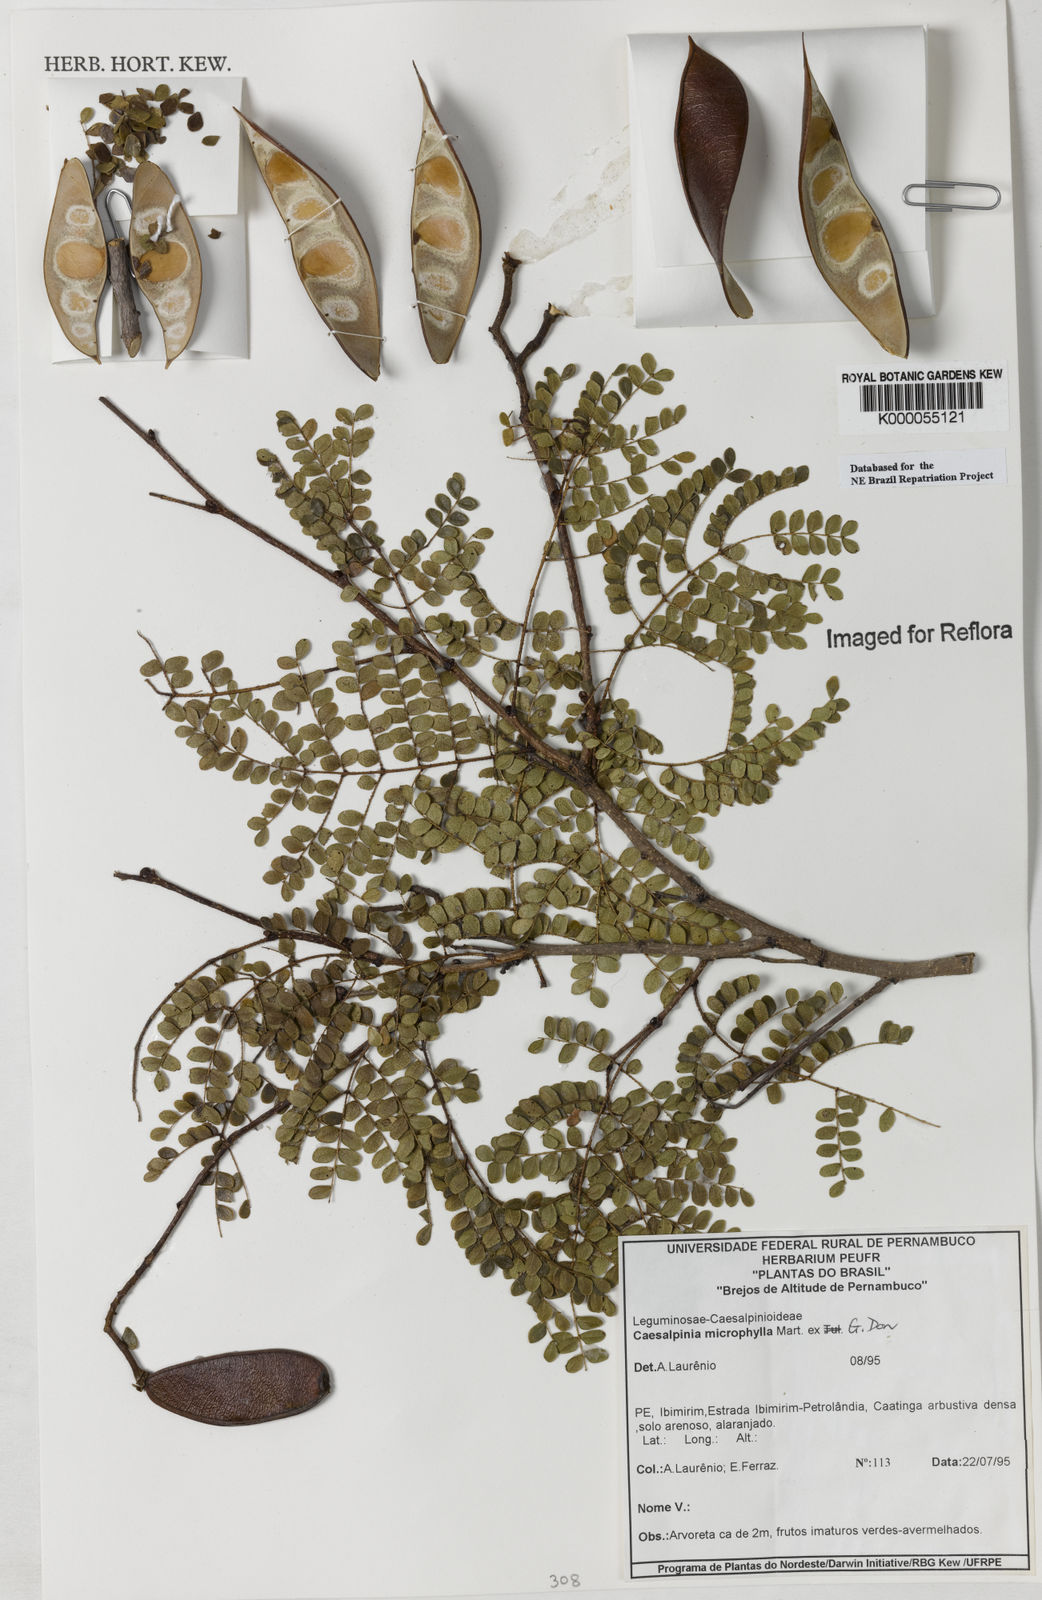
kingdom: Plantae
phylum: Tracheophyta
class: Magnoliopsida
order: Fabales
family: Fabaceae
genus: Cenostigma
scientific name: Cenostigma microphyllum
